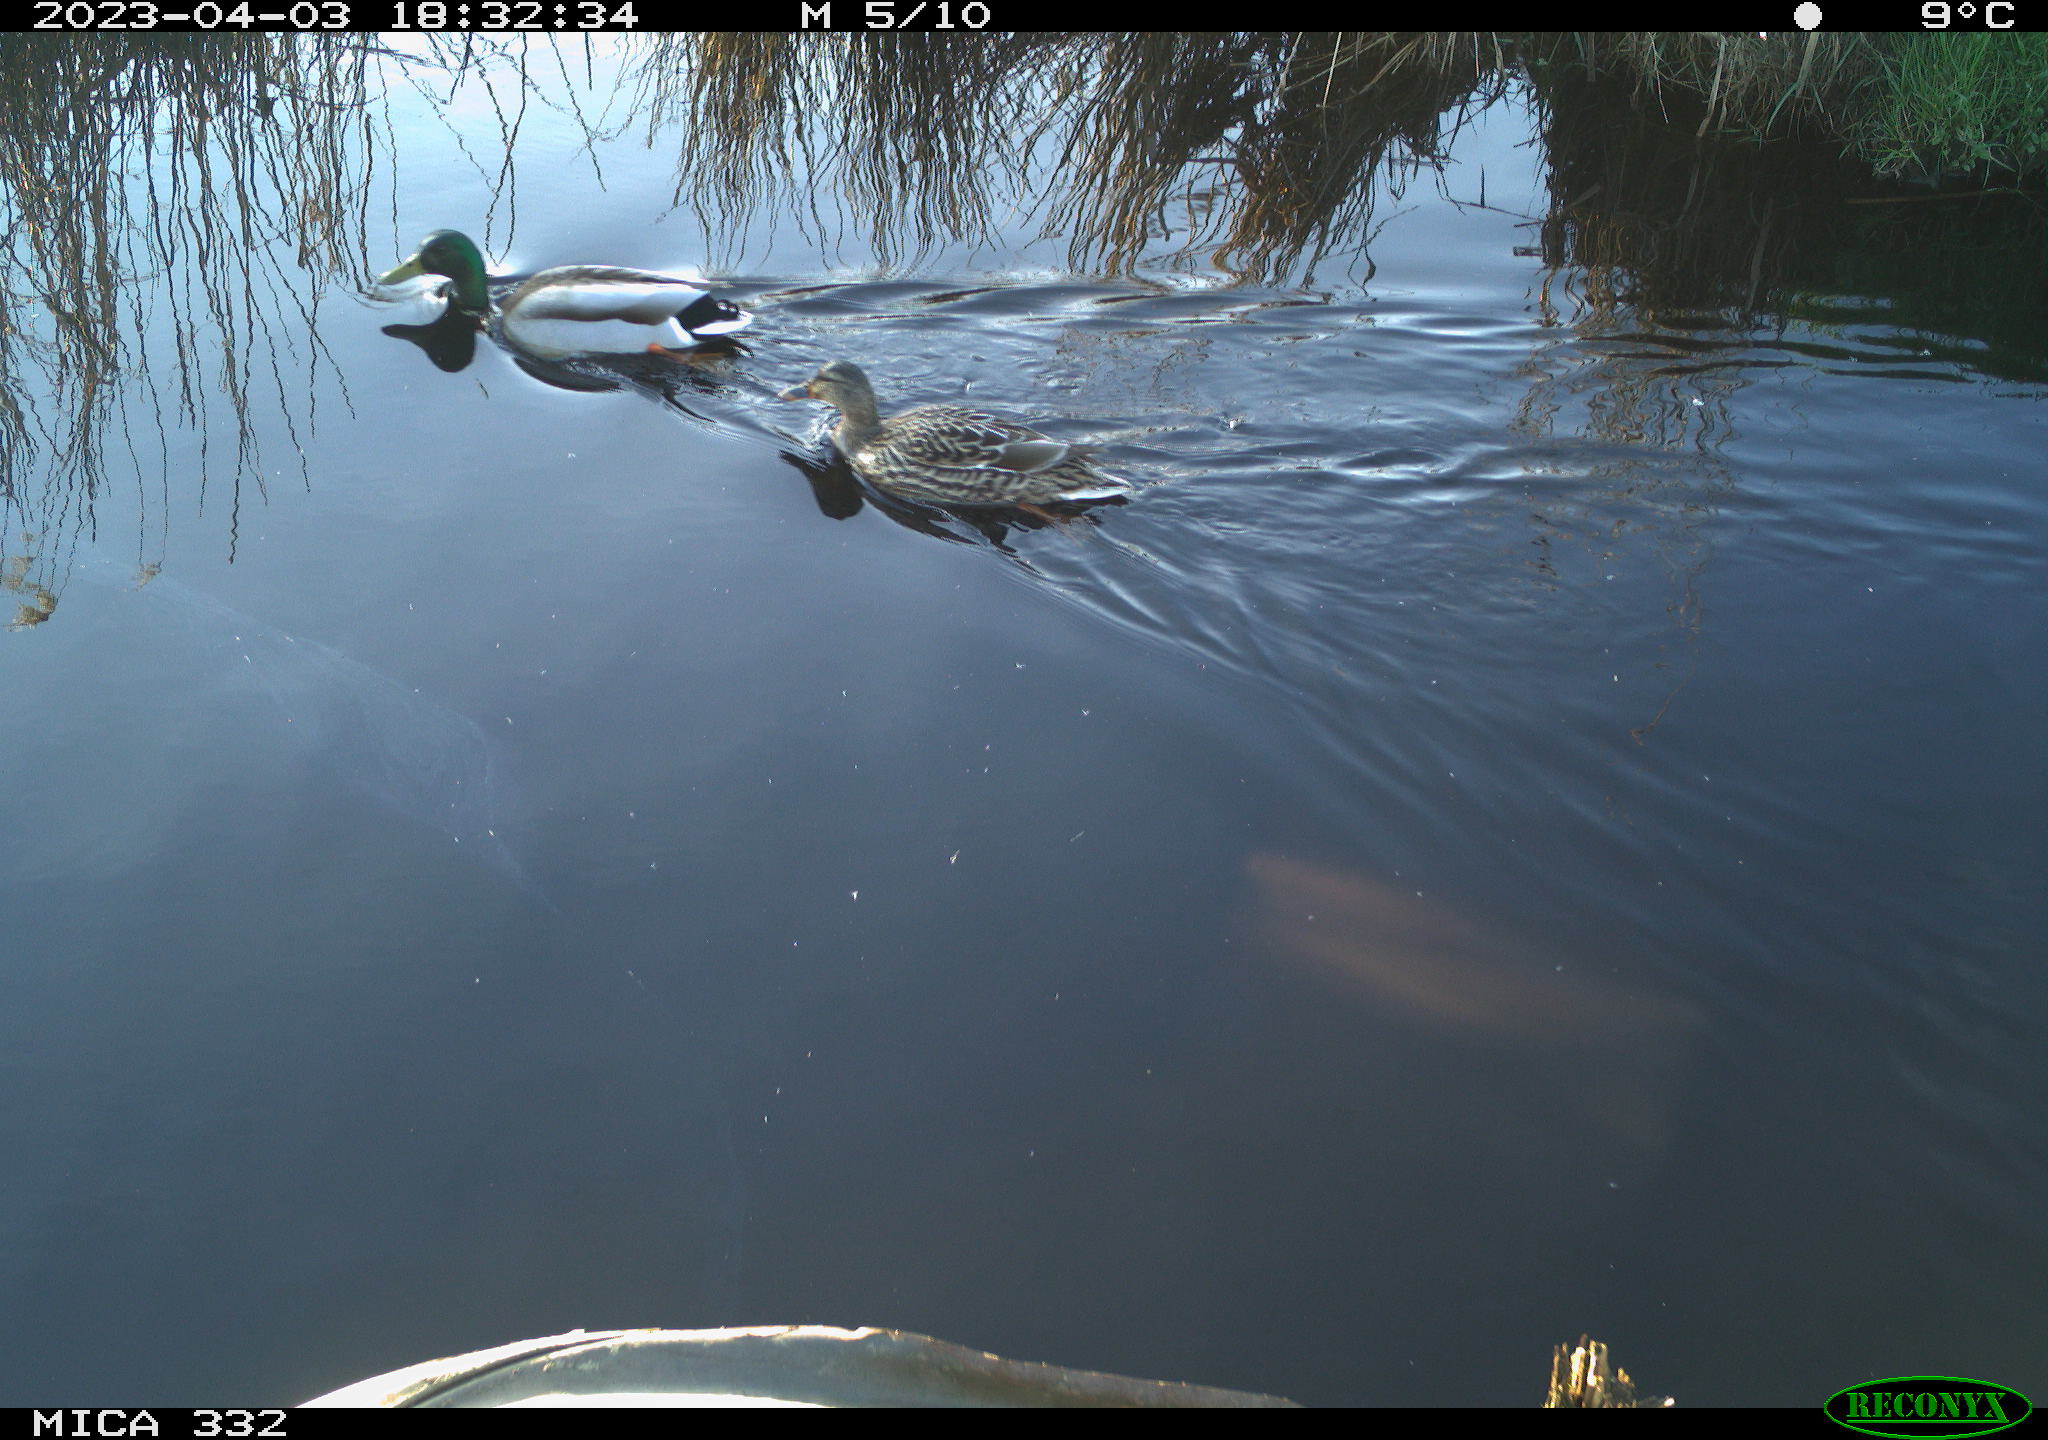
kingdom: Animalia
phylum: Chordata
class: Aves
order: Anseriformes
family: Anatidae
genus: Anas
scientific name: Anas
